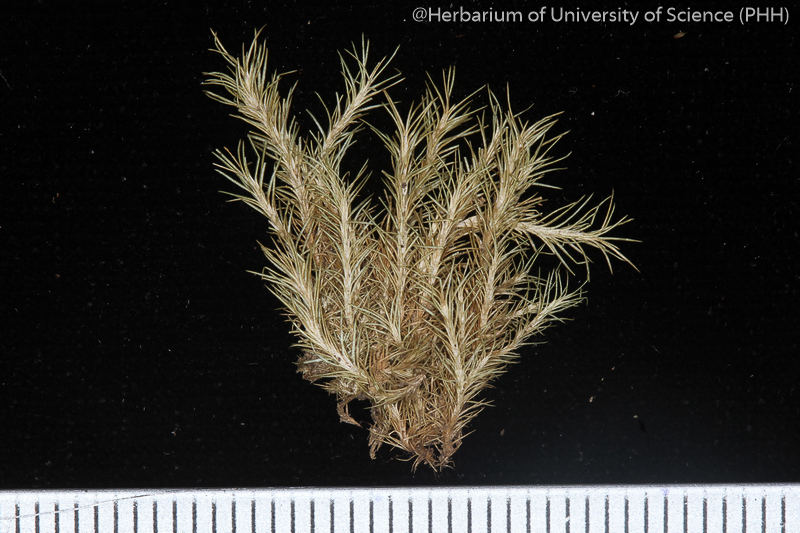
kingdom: Plantae
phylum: Bryophyta
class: Bryopsida
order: Dicranales
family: Calymperaceae
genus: Exostratum
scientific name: Exostratum blumei
